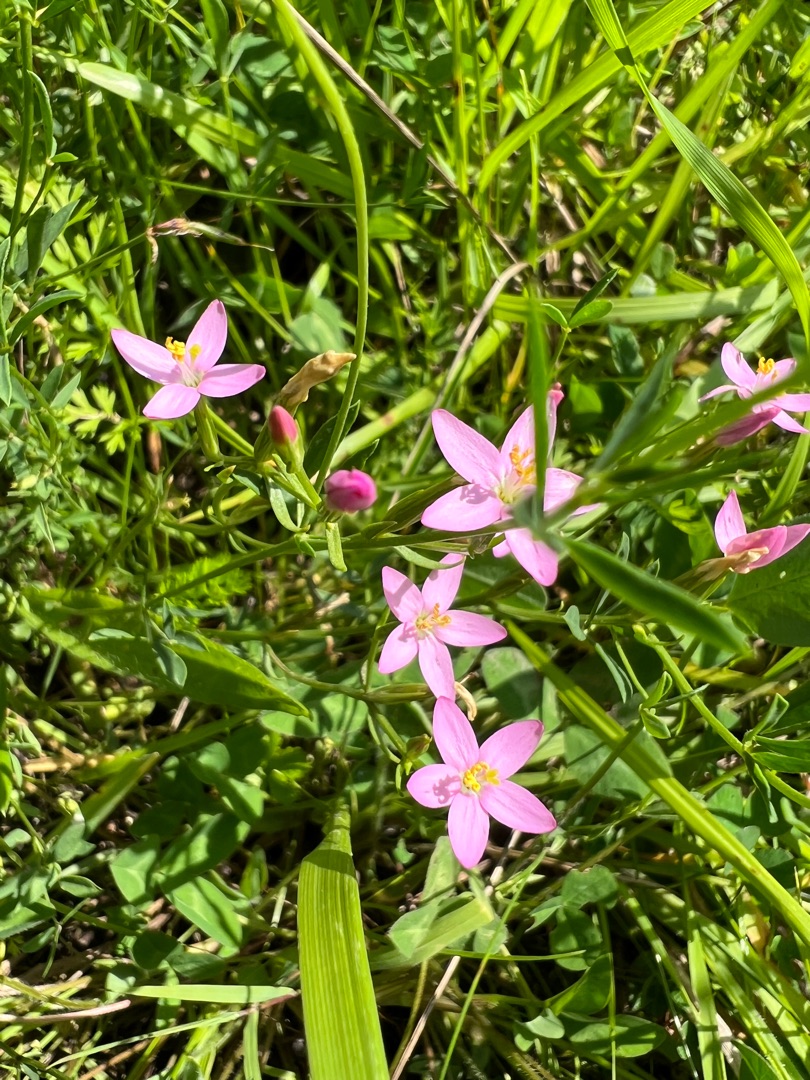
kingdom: Plantae
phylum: Tracheophyta
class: Magnoliopsida
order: Gentianales
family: Gentianaceae
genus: Centaurium
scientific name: Centaurium erythraea
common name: Mark-tusindgylden
